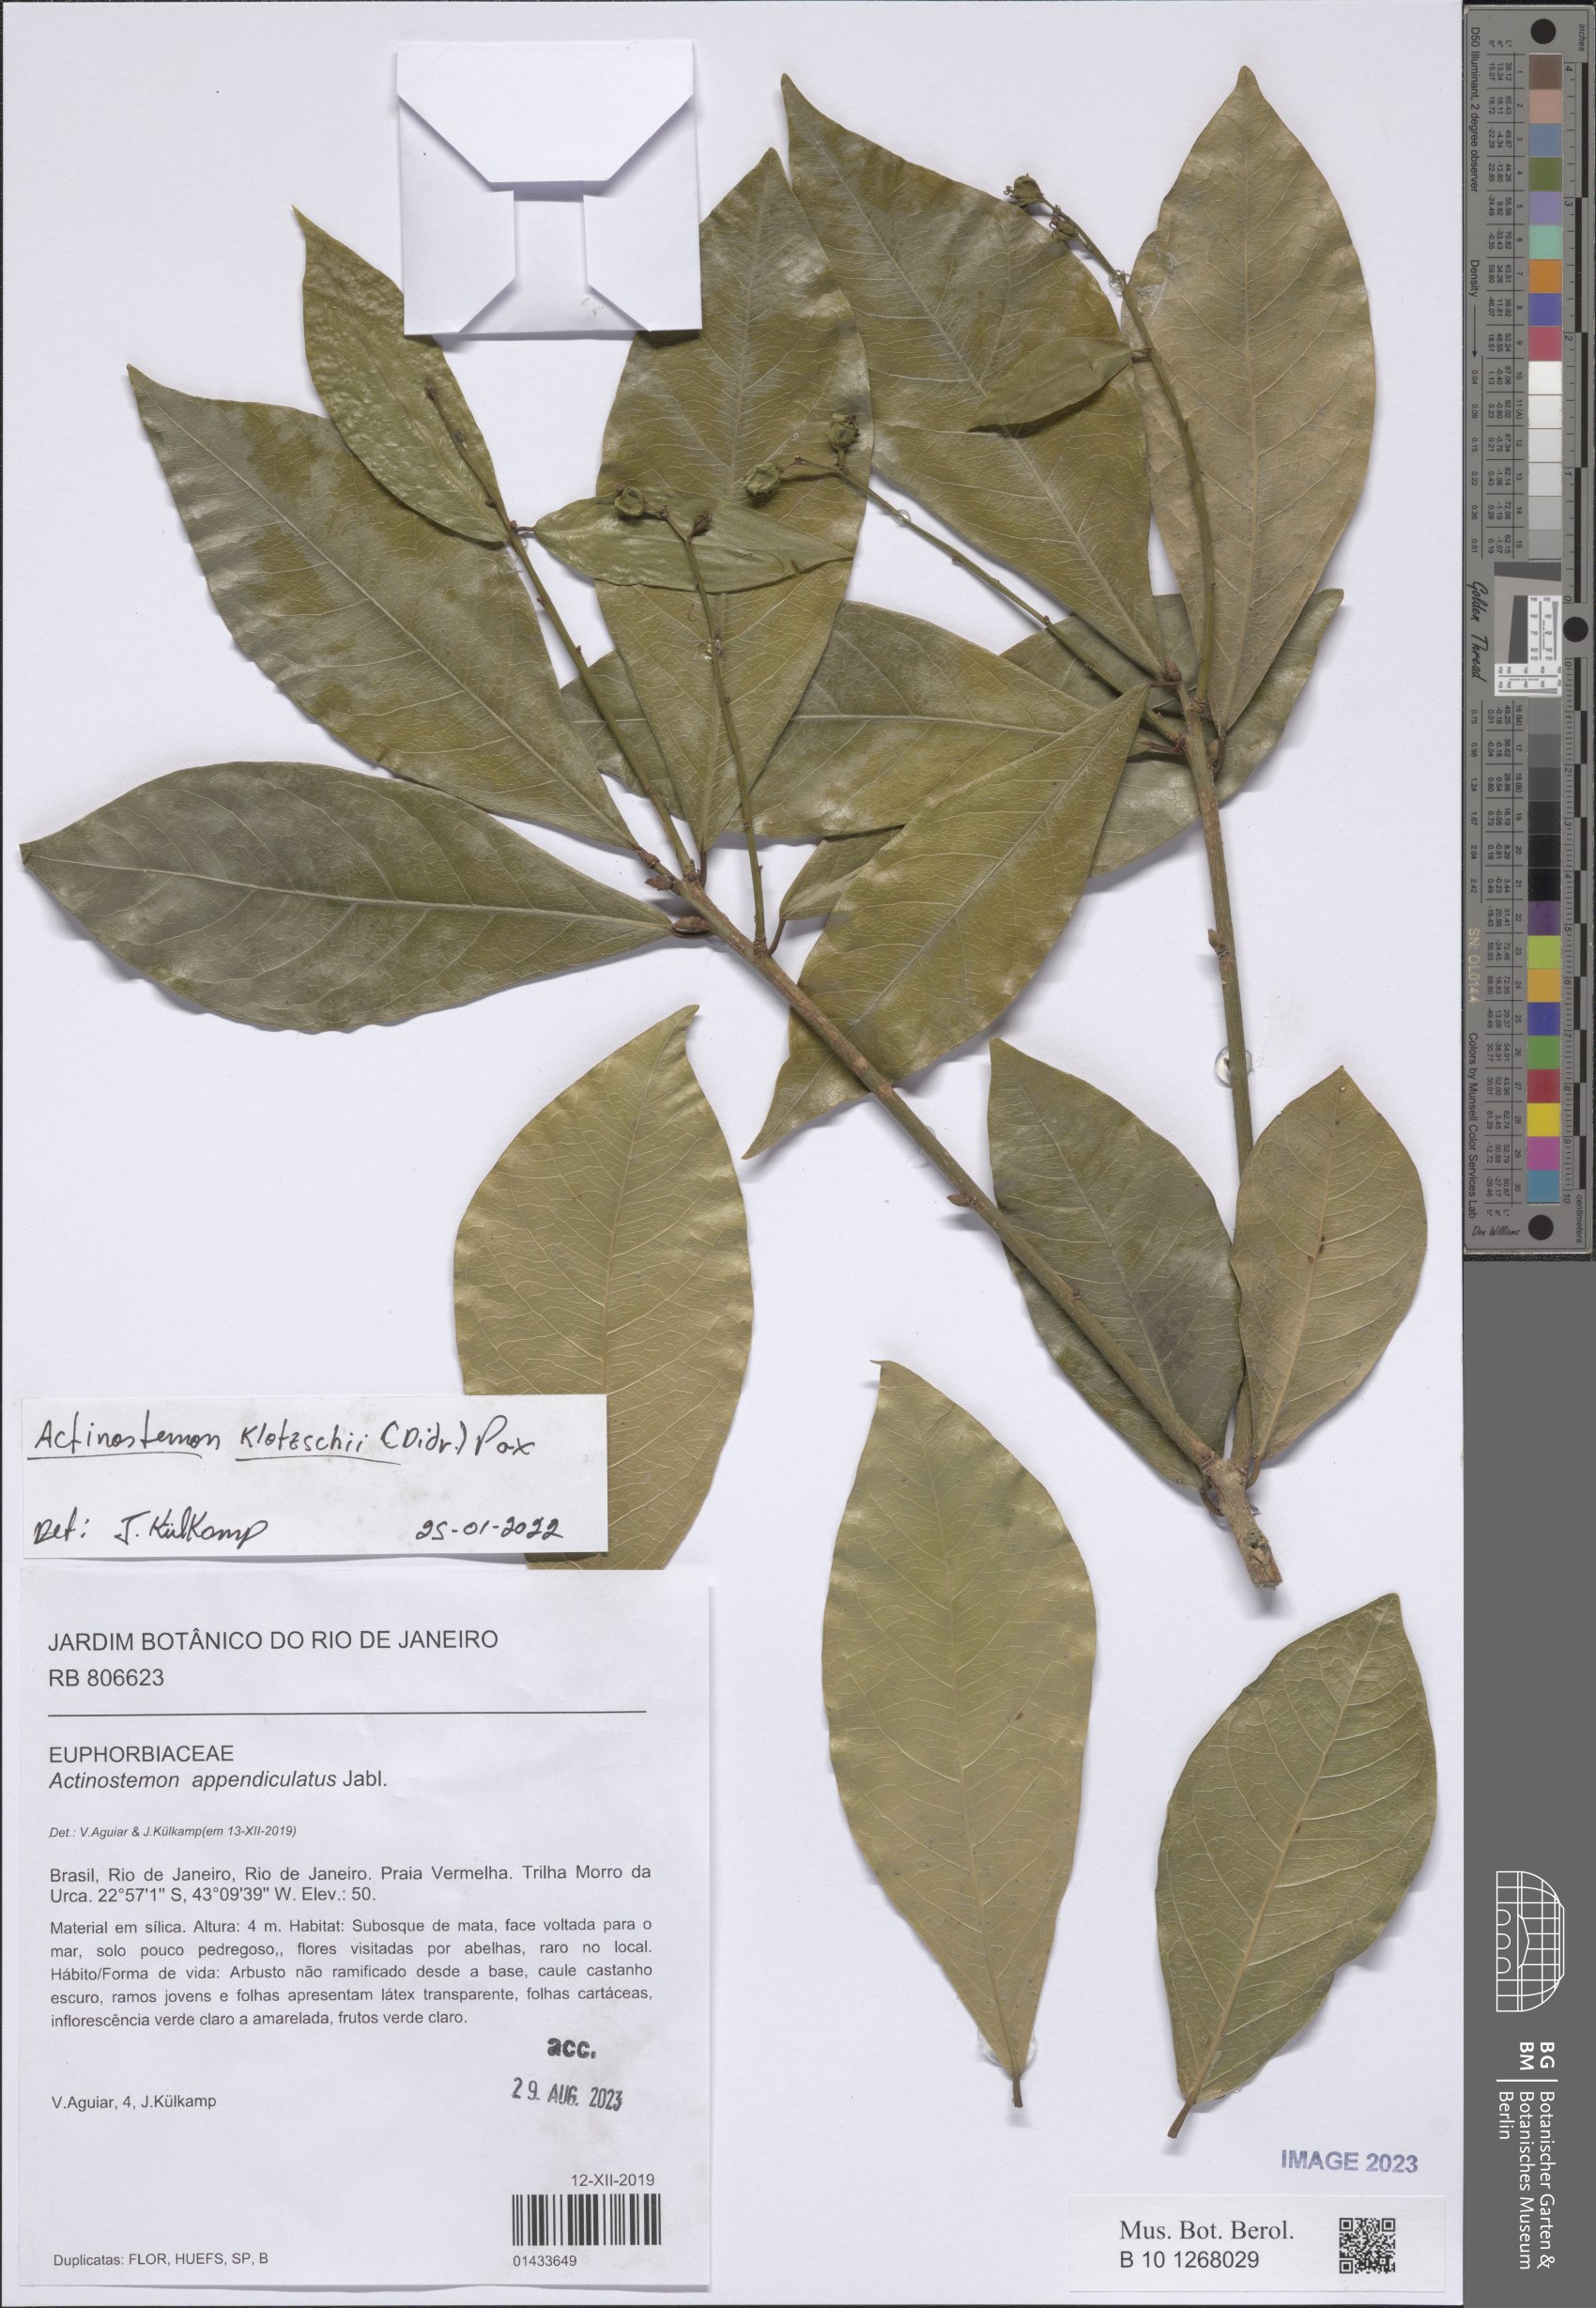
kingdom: Plantae
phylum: Tracheophyta
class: Magnoliopsida
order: Malpighiales
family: Euphorbiaceae
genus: Actinostemon
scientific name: Actinostemon klotzschii
